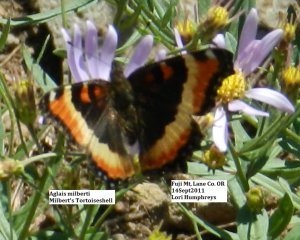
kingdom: Animalia
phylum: Arthropoda
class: Insecta
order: Lepidoptera
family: Nymphalidae
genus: Aglais
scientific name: Aglais milberti
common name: Milbert's Tortoiseshell
